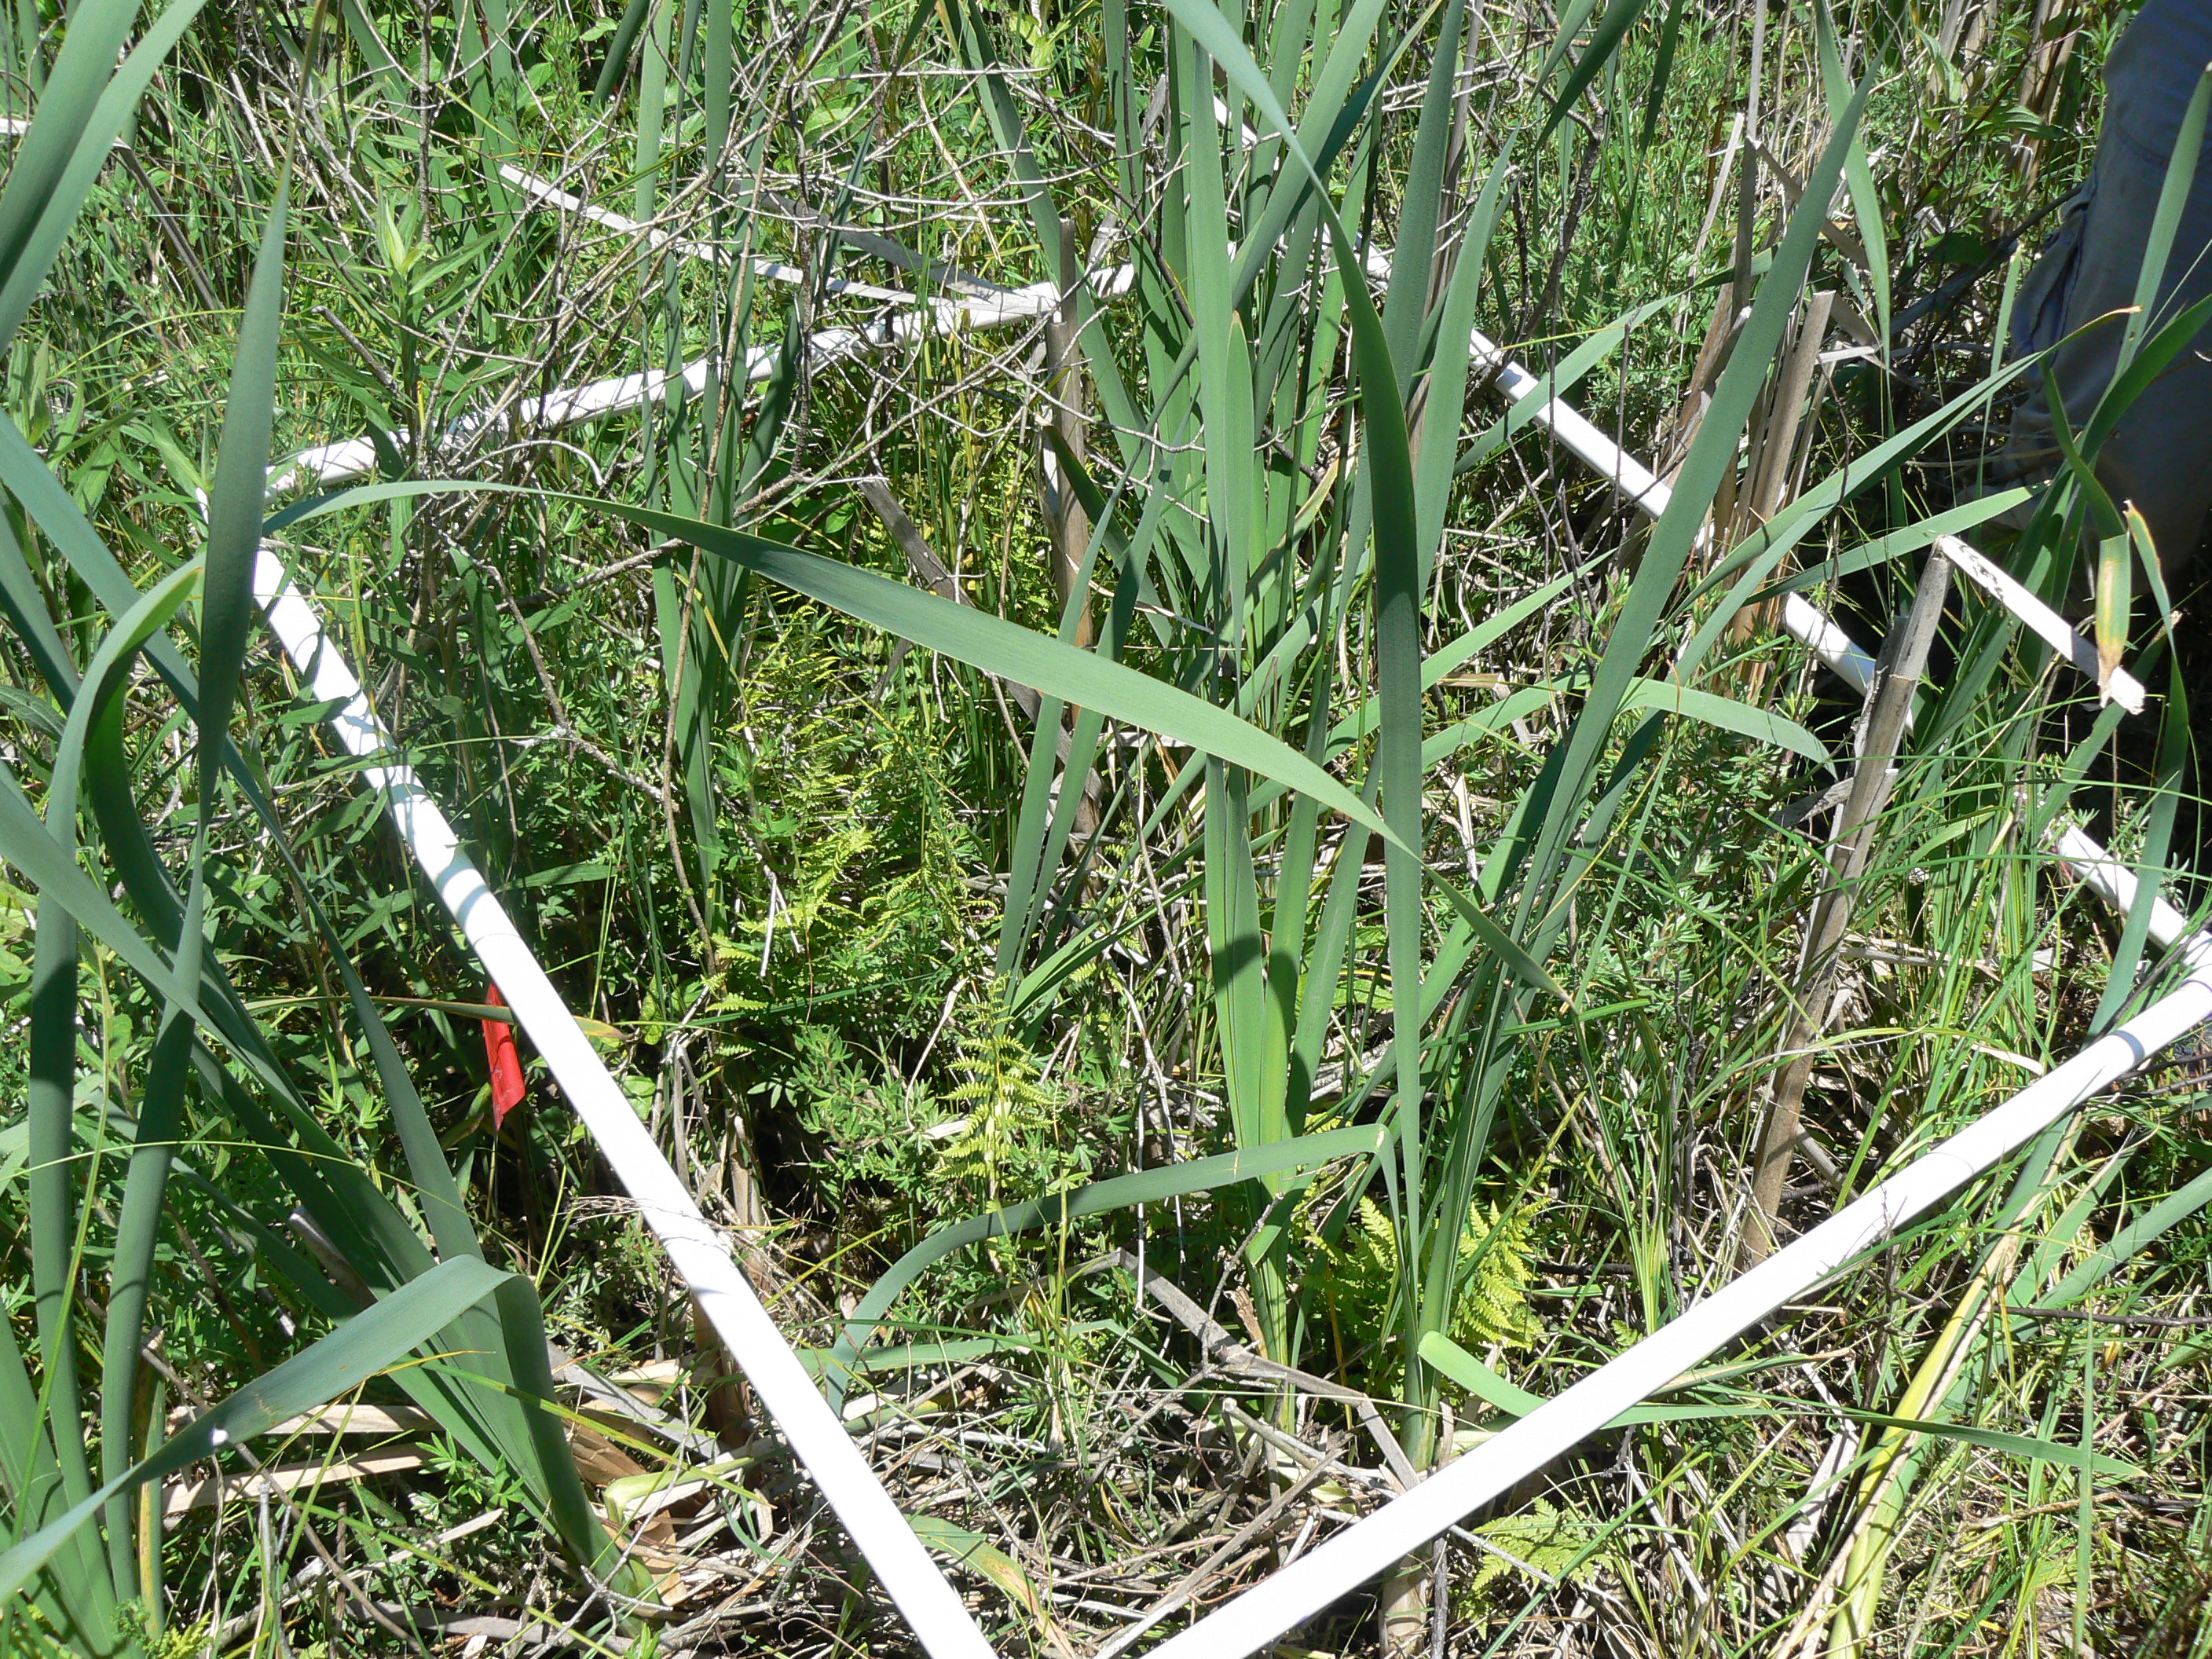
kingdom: Plantae
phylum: Tracheophyta
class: Magnoliopsida
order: Rosales
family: Rhamnaceae
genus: Frangula
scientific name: Frangula alnus
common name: Alder buckthorn
